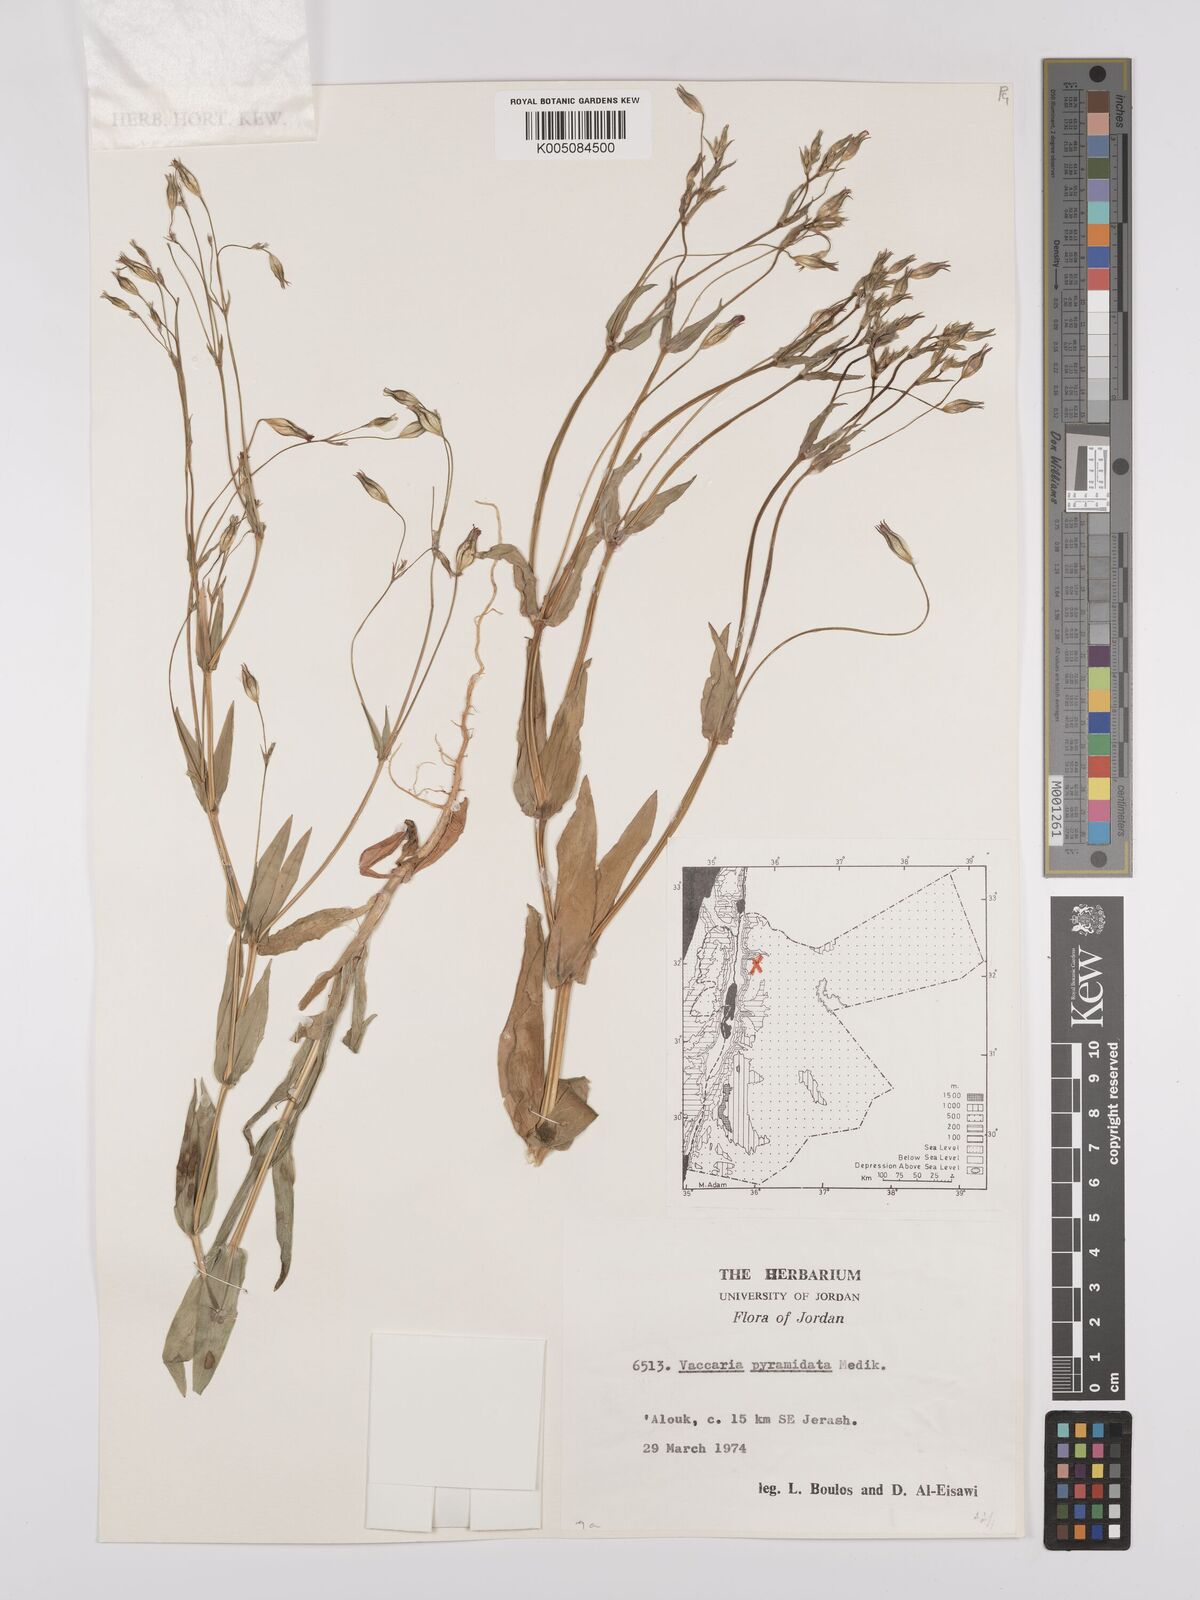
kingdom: Plantae
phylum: Tracheophyta
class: Magnoliopsida
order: Caryophyllales
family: Caryophyllaceae
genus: Gypsophila
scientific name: Gypsophila vaccaria
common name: Cow soapwort
